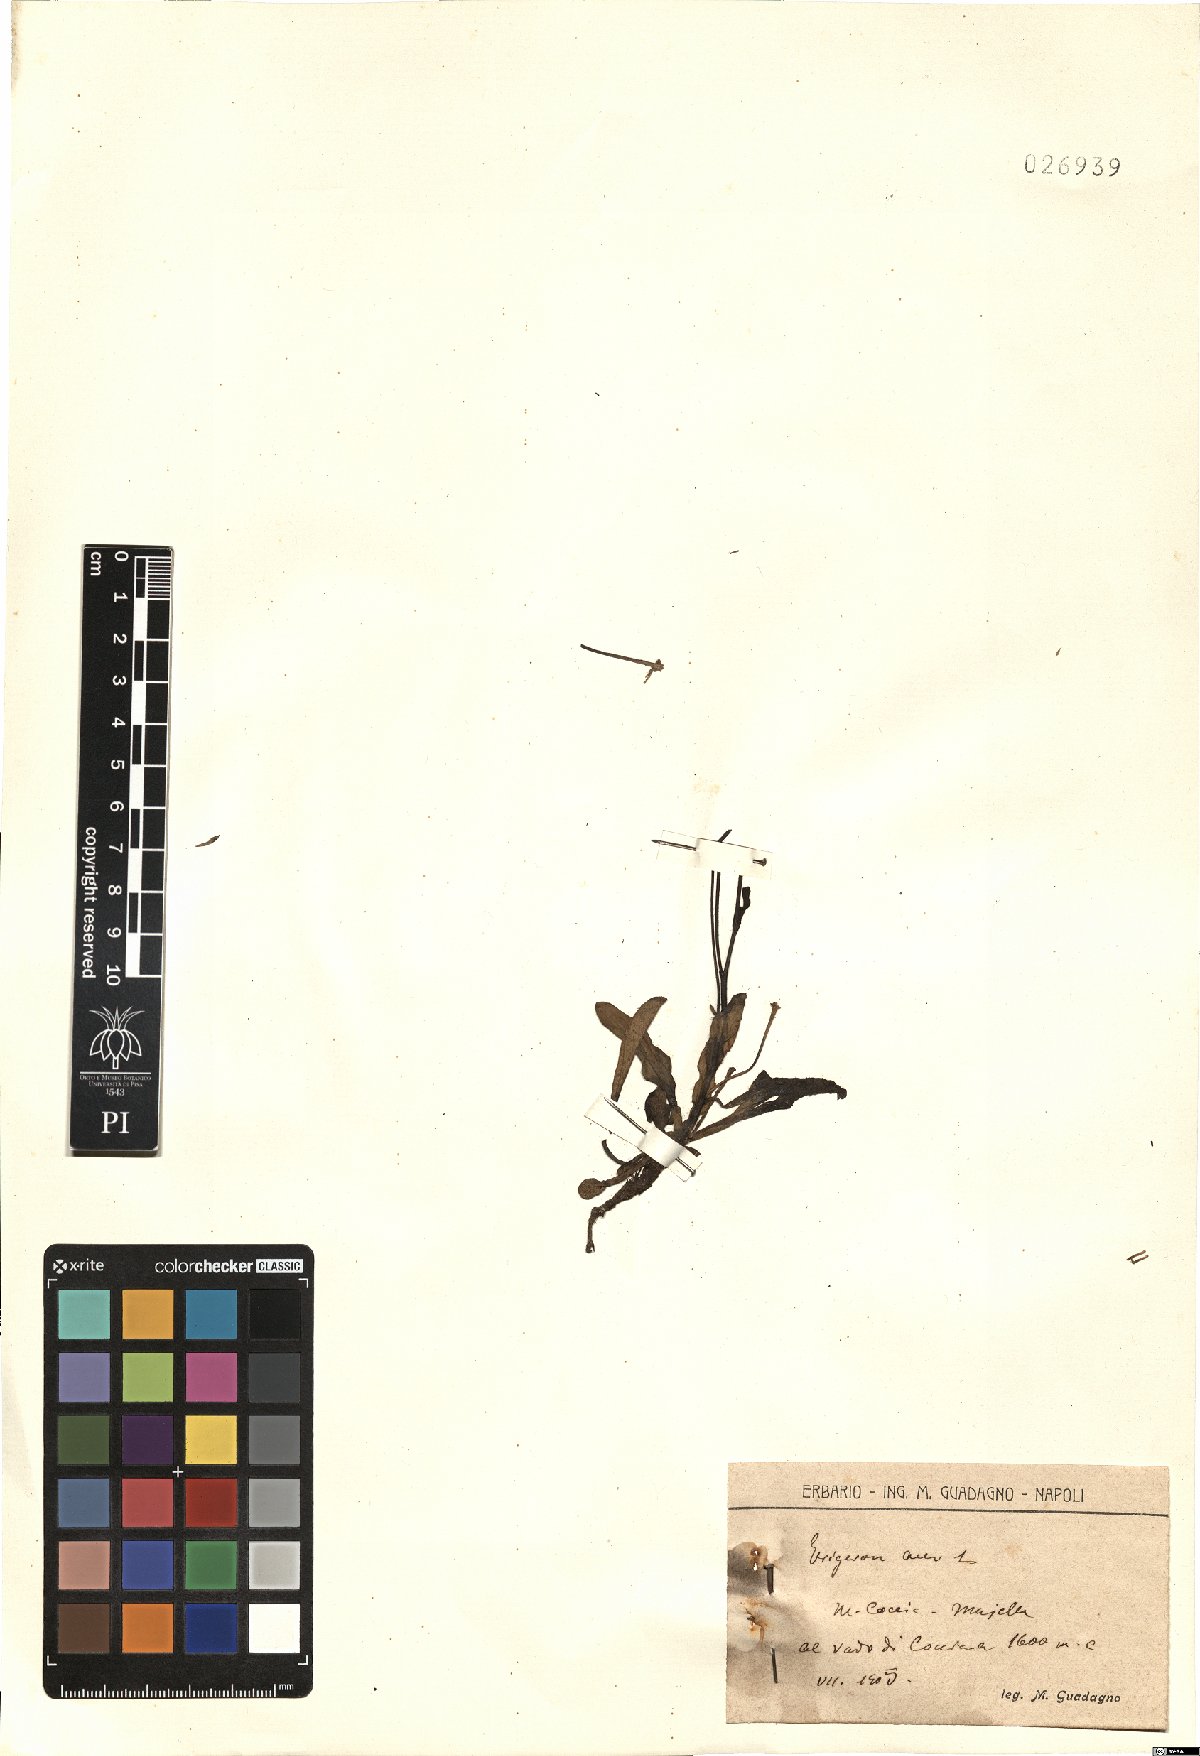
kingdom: Plantae
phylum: Tracheophyta
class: Magnoliopsida
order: Asterales
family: Asteraceae
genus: Erigeron
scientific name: Erigeron acer
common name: Blue fleabane
